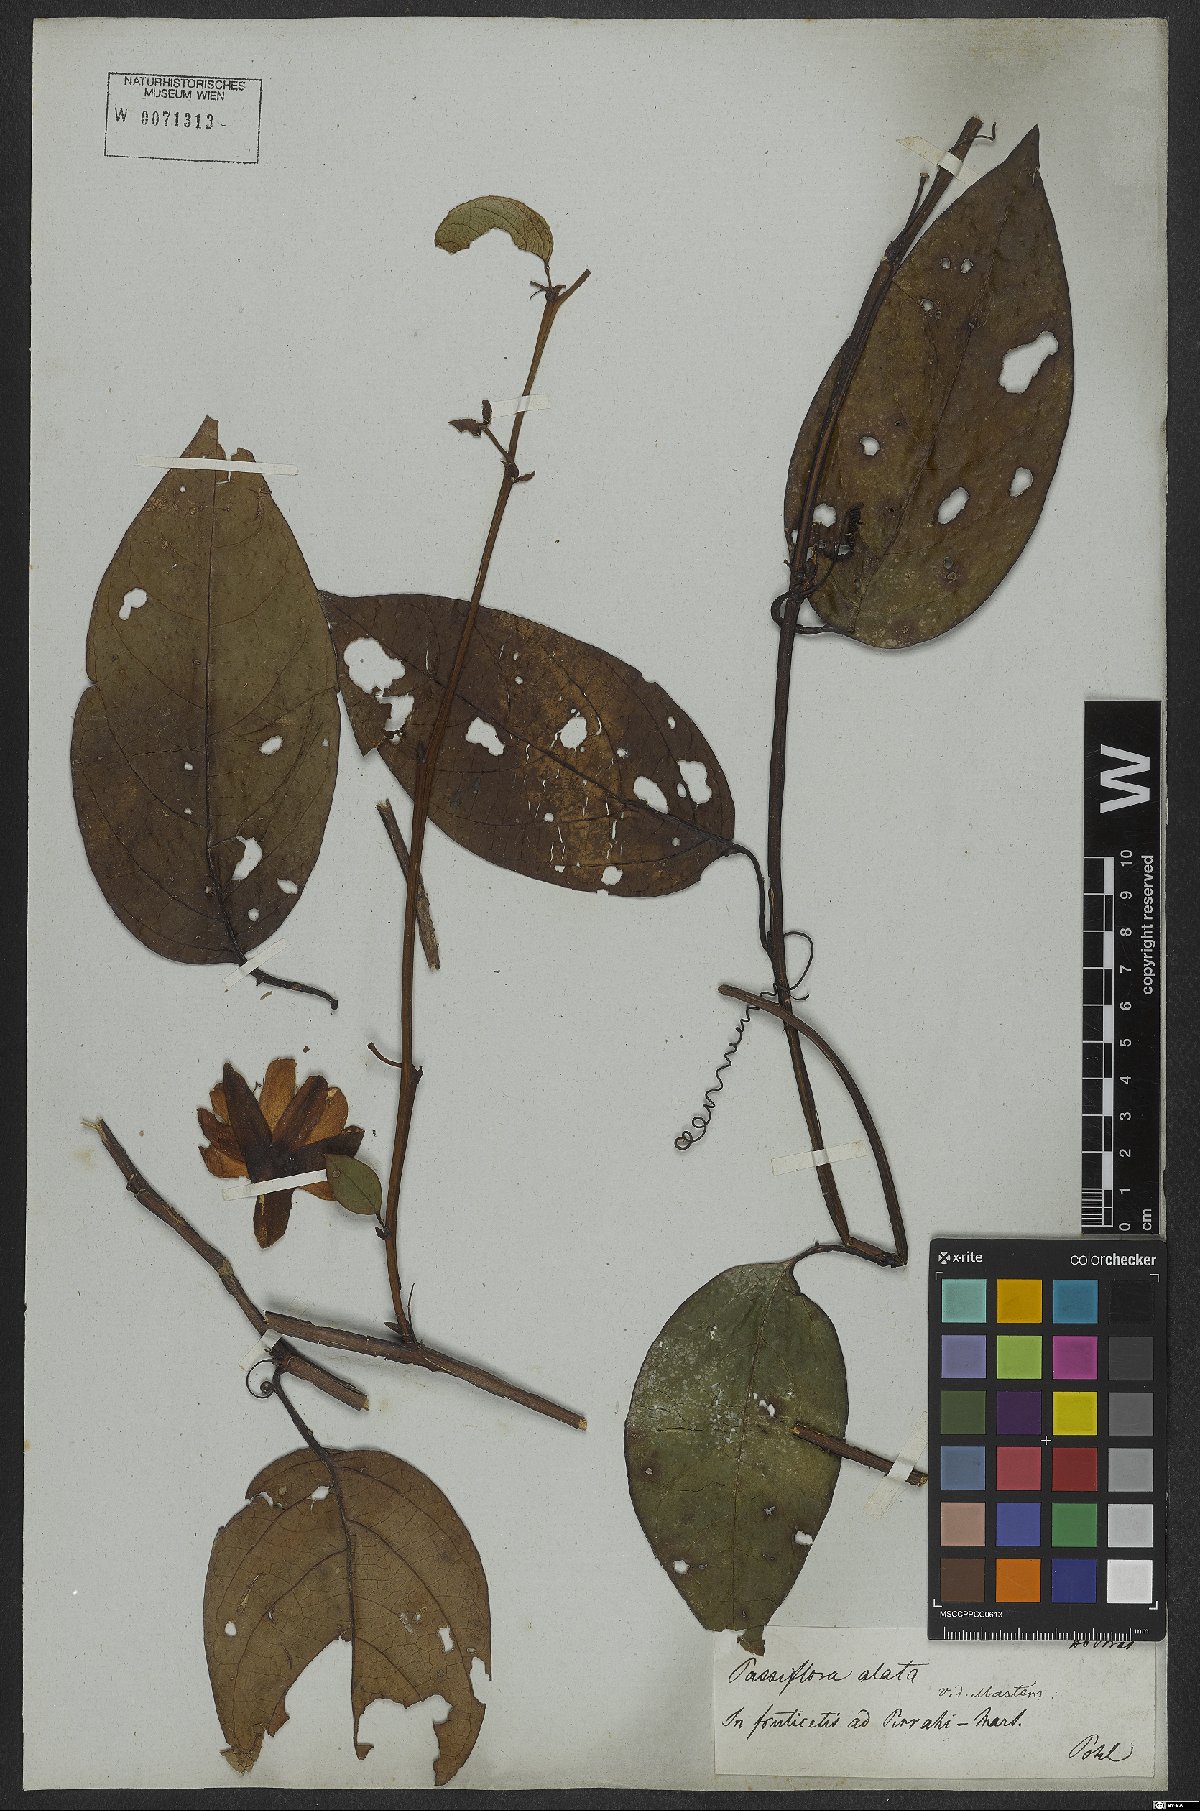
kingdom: Plantae
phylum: Tracheophyta
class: Magnoliopsida
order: Malpighiales
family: Passifloraceae
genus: Passiflora
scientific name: Passiflora alata
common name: Wing-stemmed passion flower
